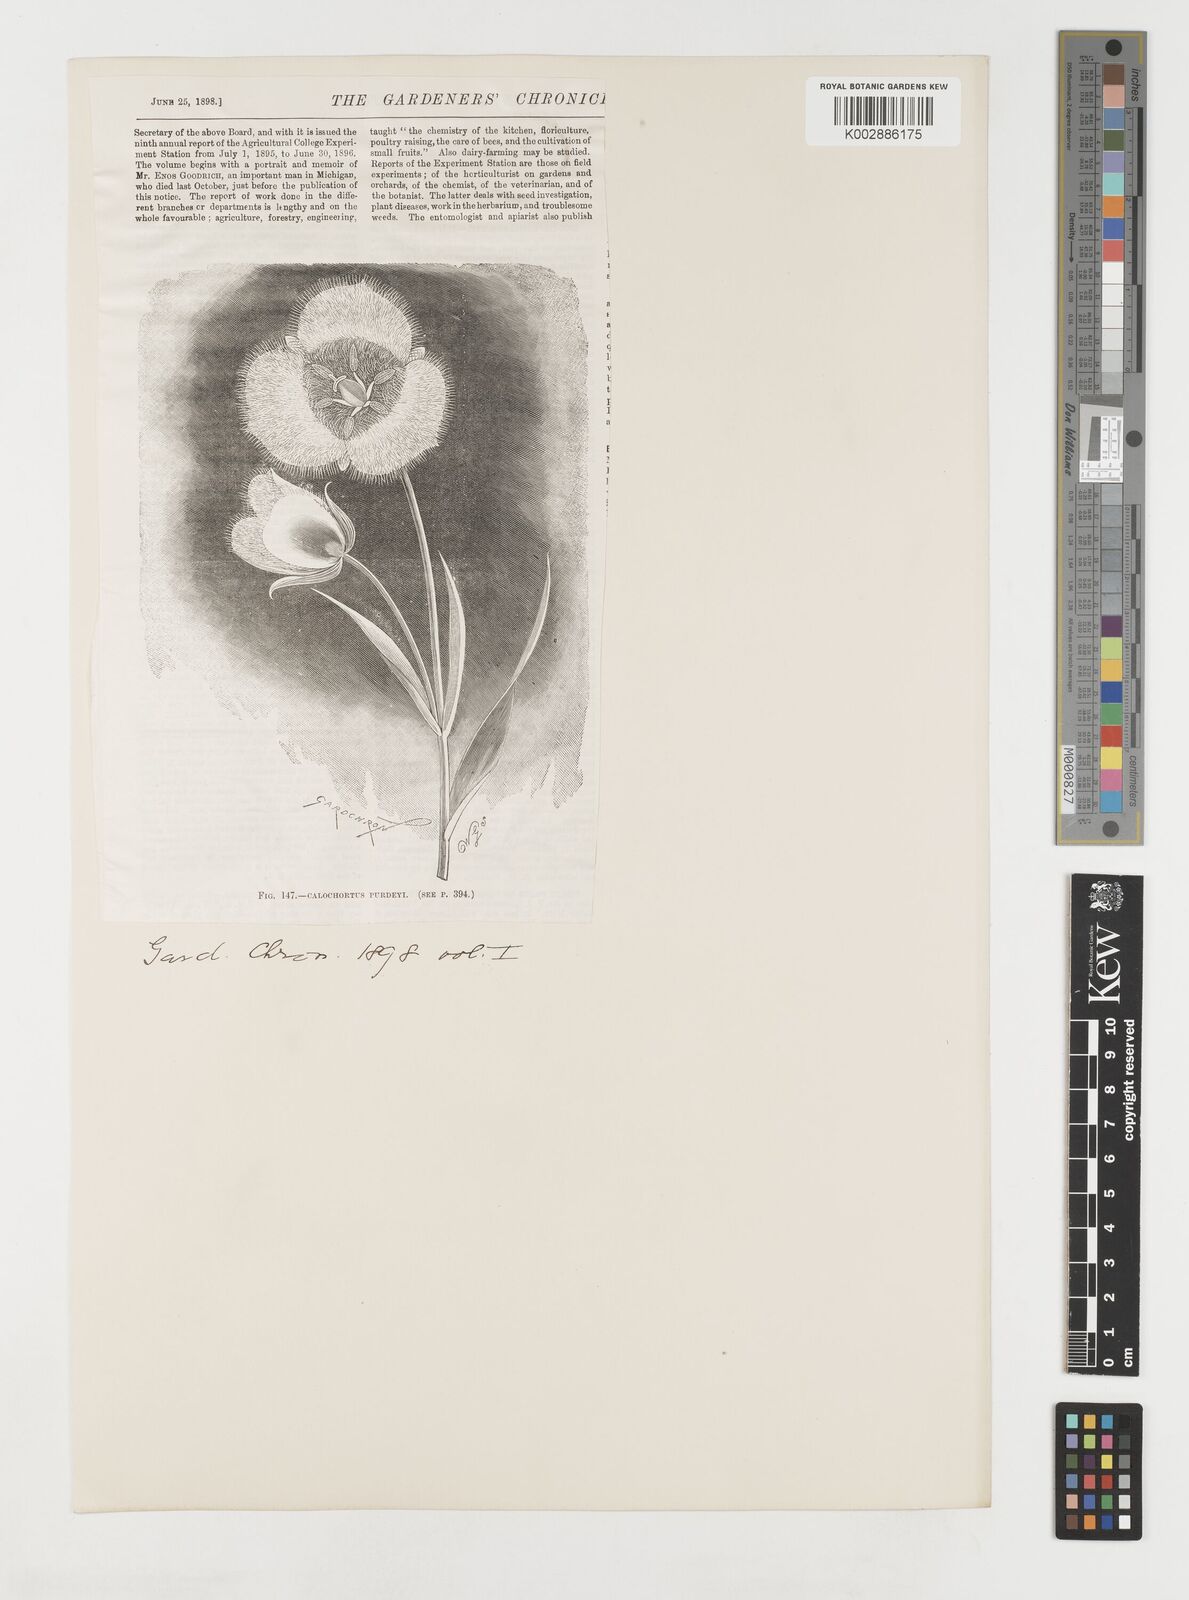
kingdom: Plantae
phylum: Tracheophyta
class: Liliopsida
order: Liliales
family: Liliaceae
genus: Calochortus
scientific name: Calochortus tolmiei
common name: Pussy-ears
